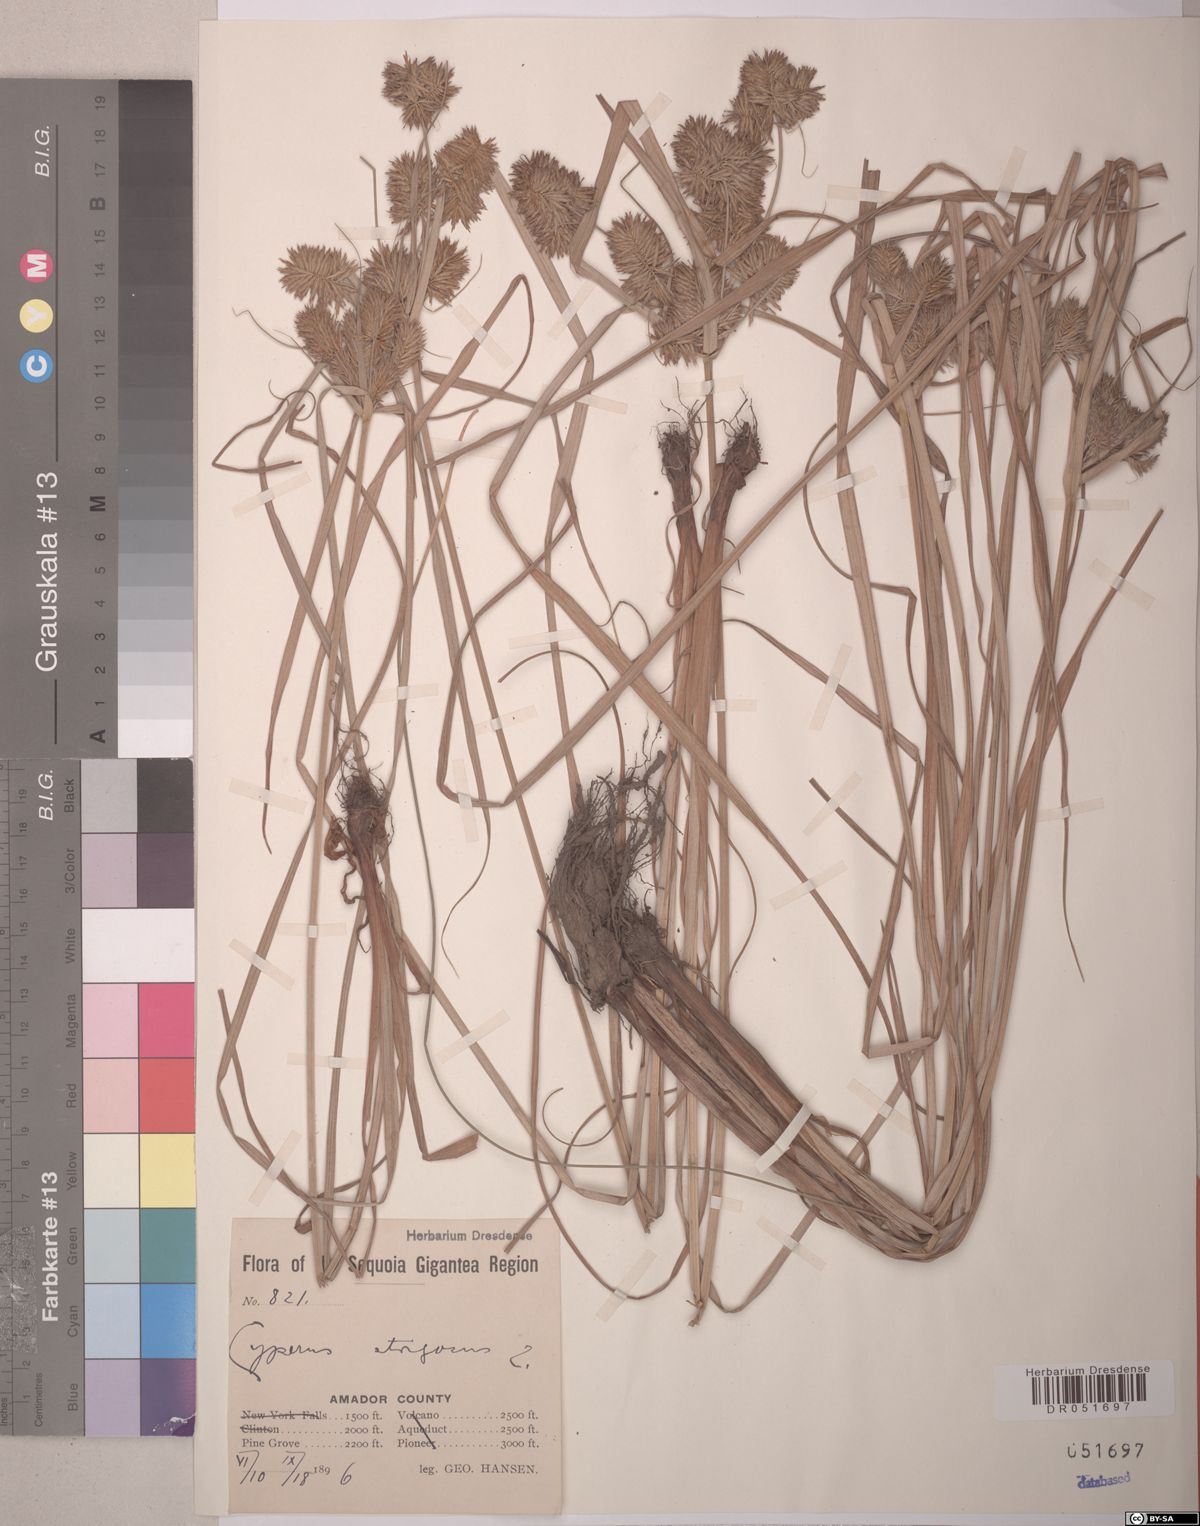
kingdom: Plantae
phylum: Tracheophyta
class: Liliopsida
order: Poales
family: Cyperaceae
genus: Cyperus
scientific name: Cyperus strigosus
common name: False nutsedge
